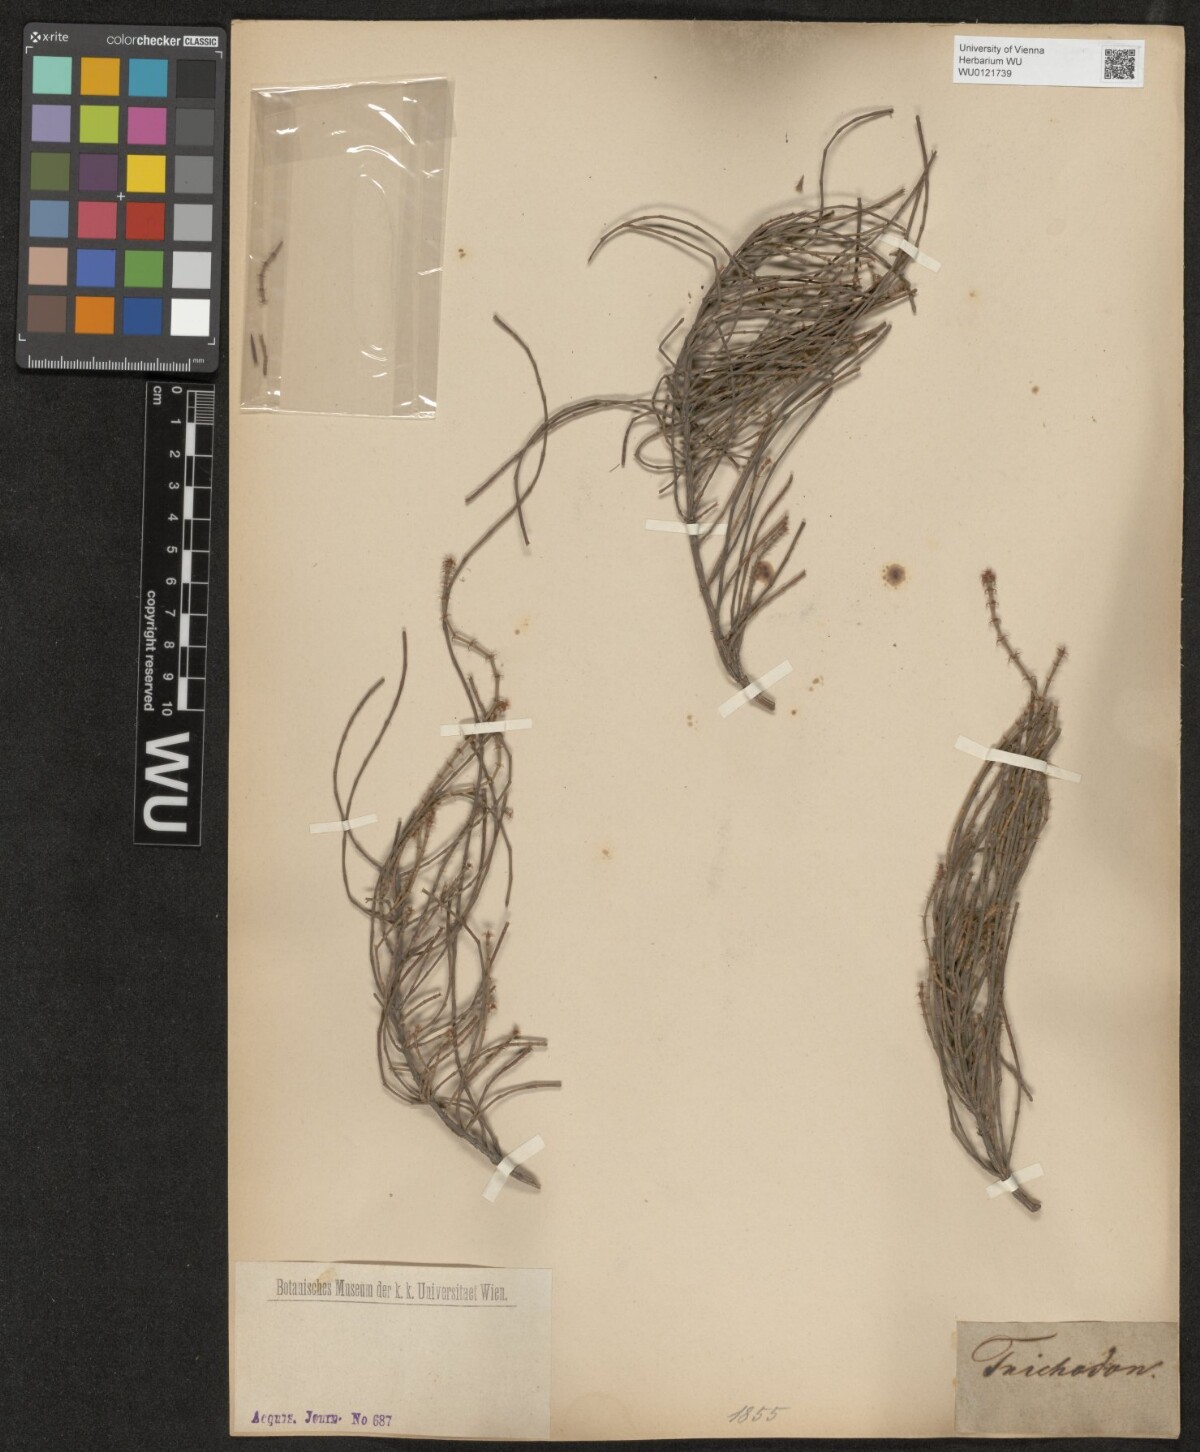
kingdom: Plantae
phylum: Tracheophyta
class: Magnoliopsida
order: Fagales
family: Casuarinaceae
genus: Allocasuarina
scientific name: Allocasuarina trichodon
